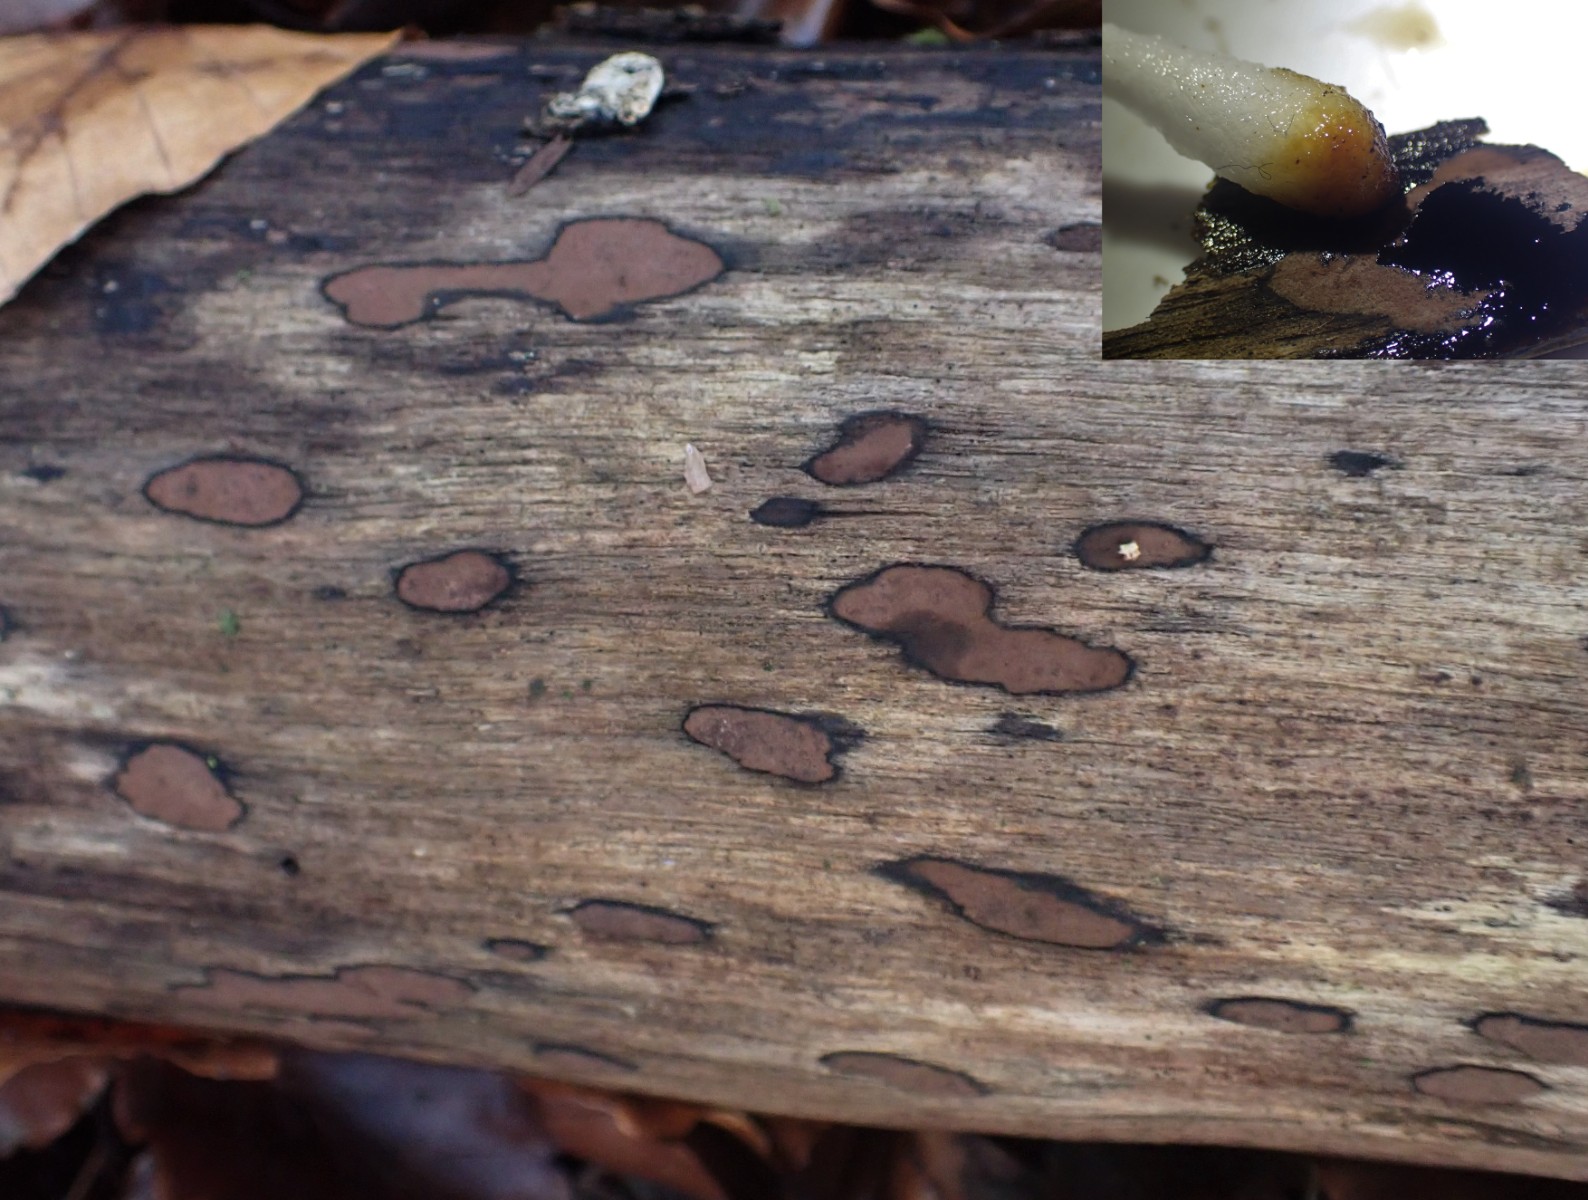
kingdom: Fungi
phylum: Ascomycota
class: Sordariomycetes
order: Xylariales
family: Hypoxylaceae
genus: Hypoxylon
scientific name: Hypoxylon petriniae
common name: nedsænket kulbær
